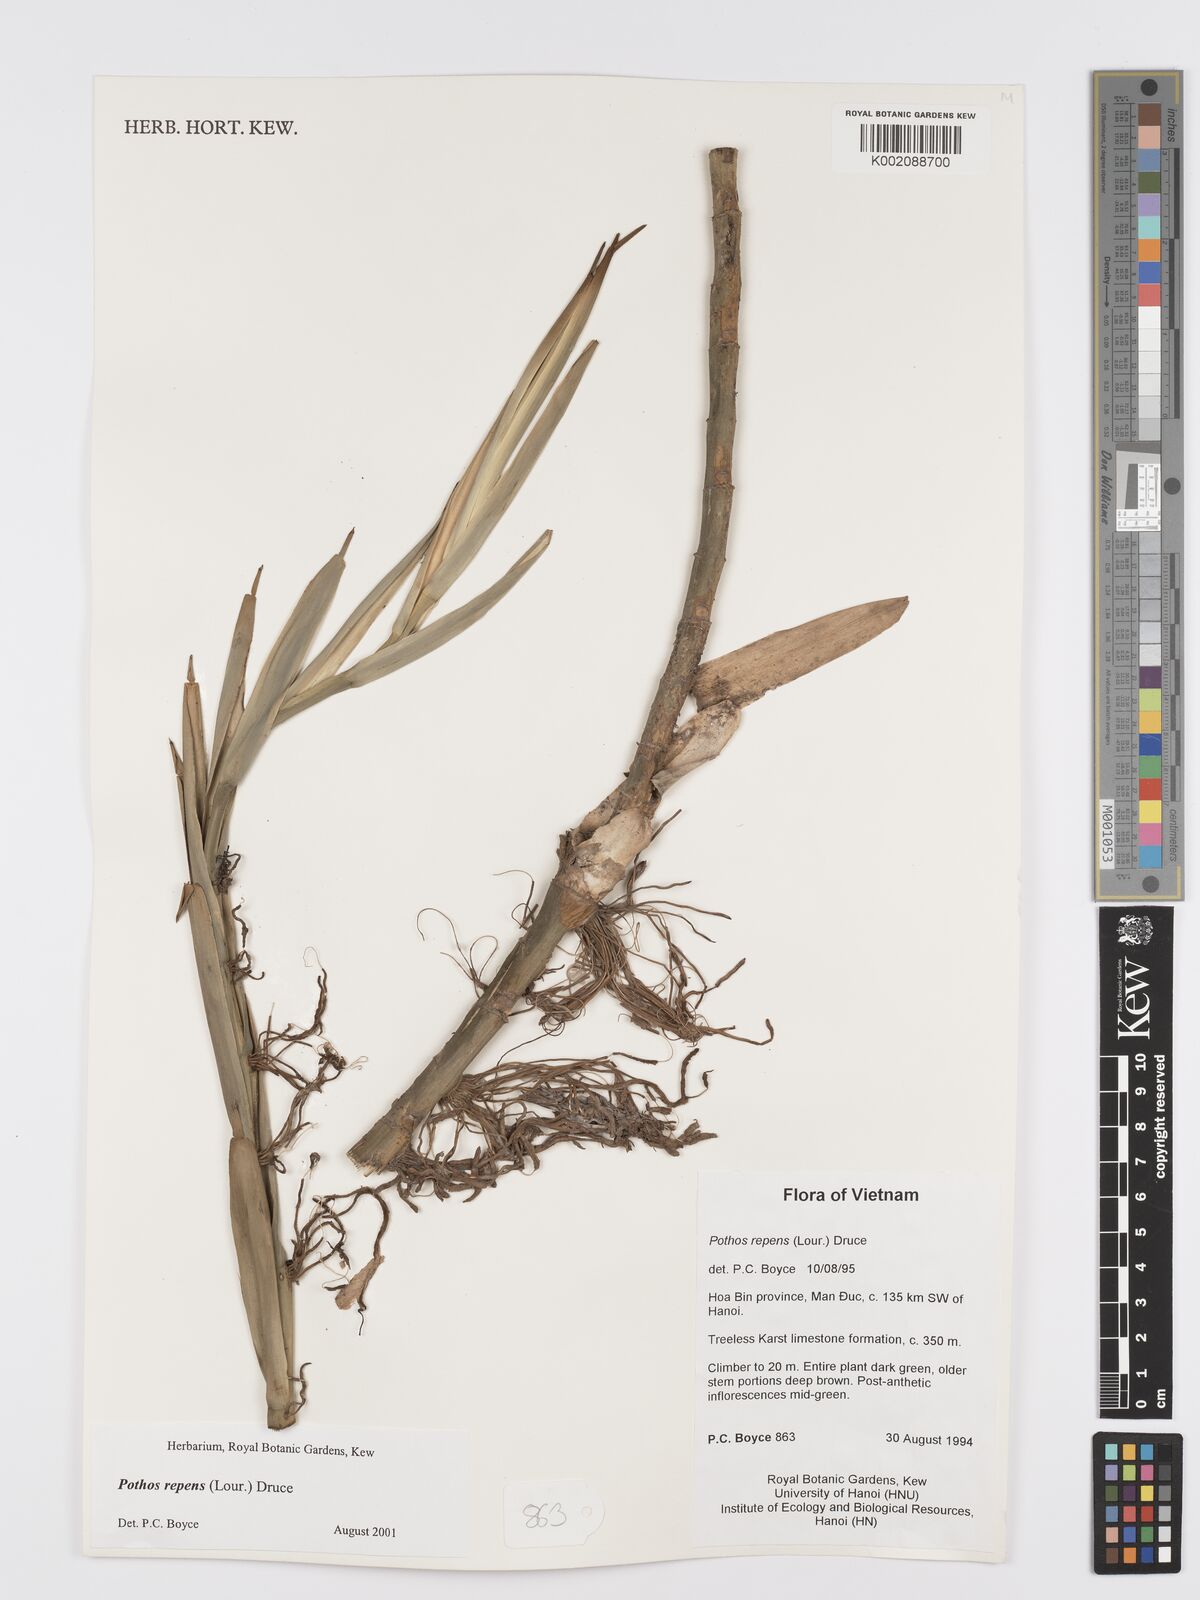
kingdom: Plantae
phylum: Tracheophyta
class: Liliopsida
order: Alismatales
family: Araceae
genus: Pothos
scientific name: Pothos repens
